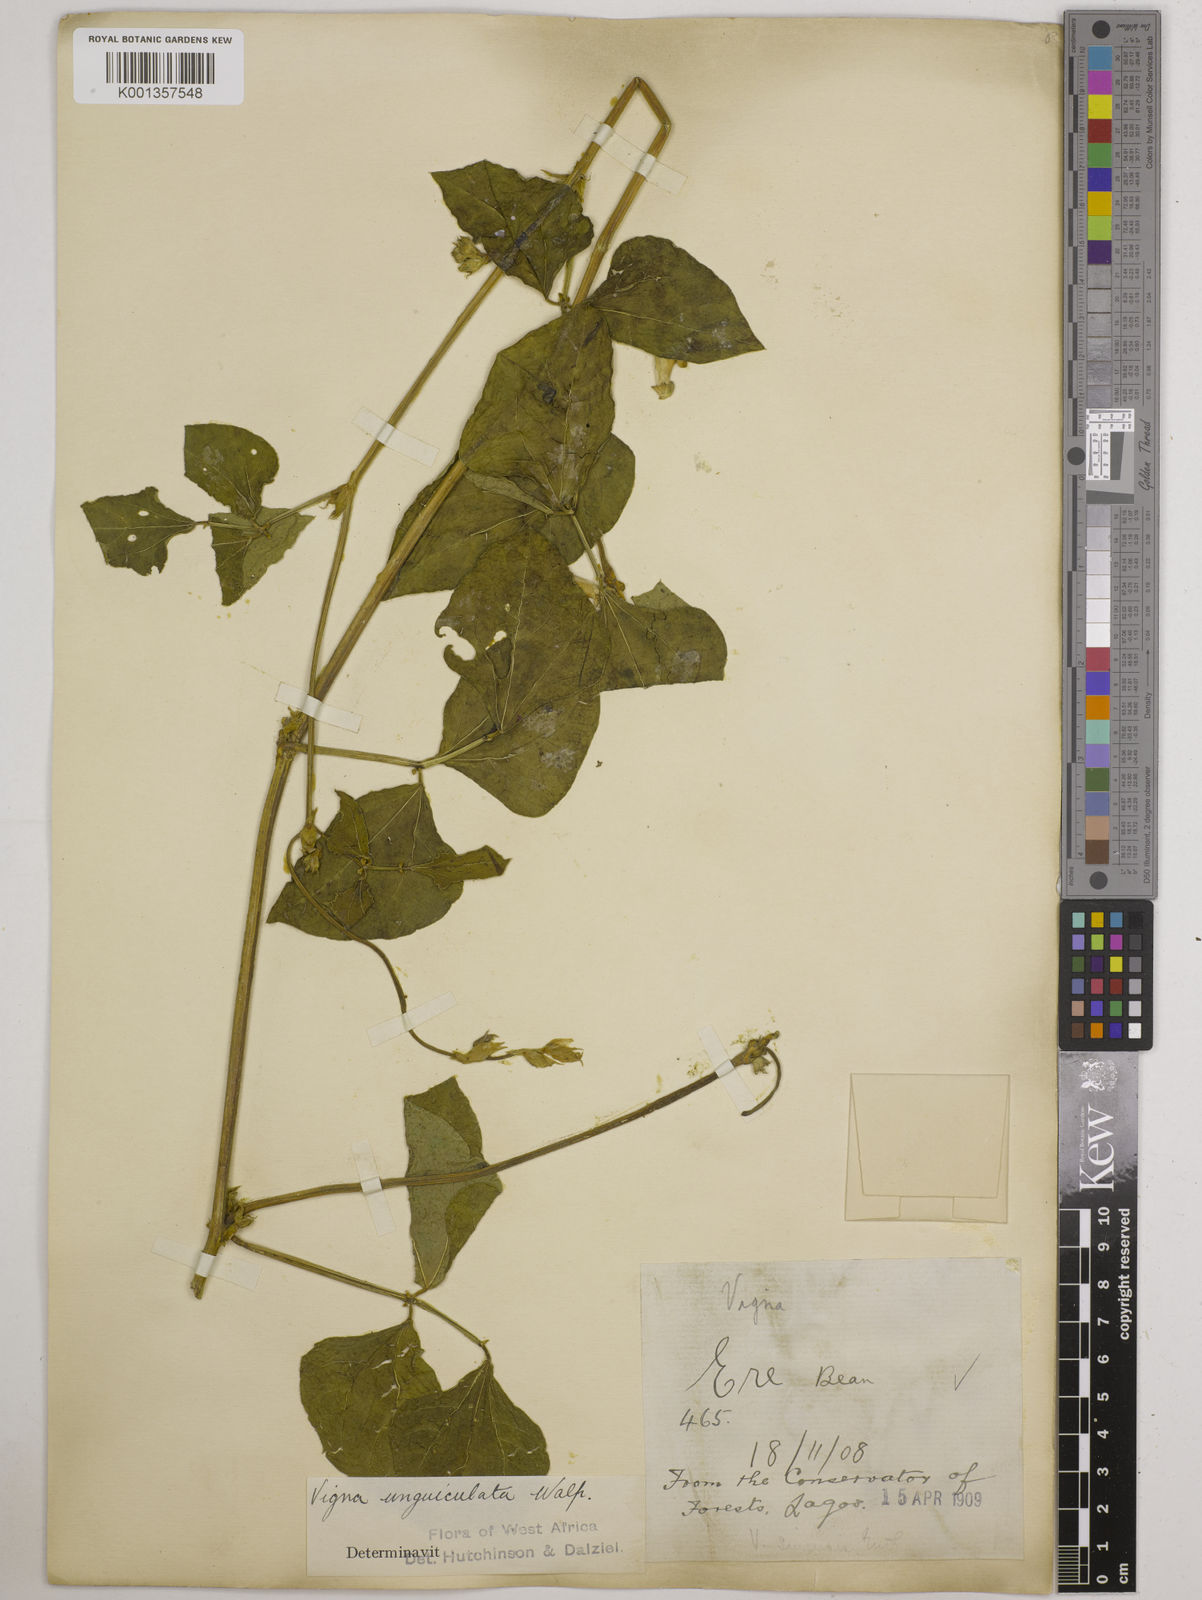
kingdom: Plantae
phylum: Tracheophyta
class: Magnoliopsida
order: Fabales
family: Fabaceae
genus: Vigna
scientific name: Vigna
